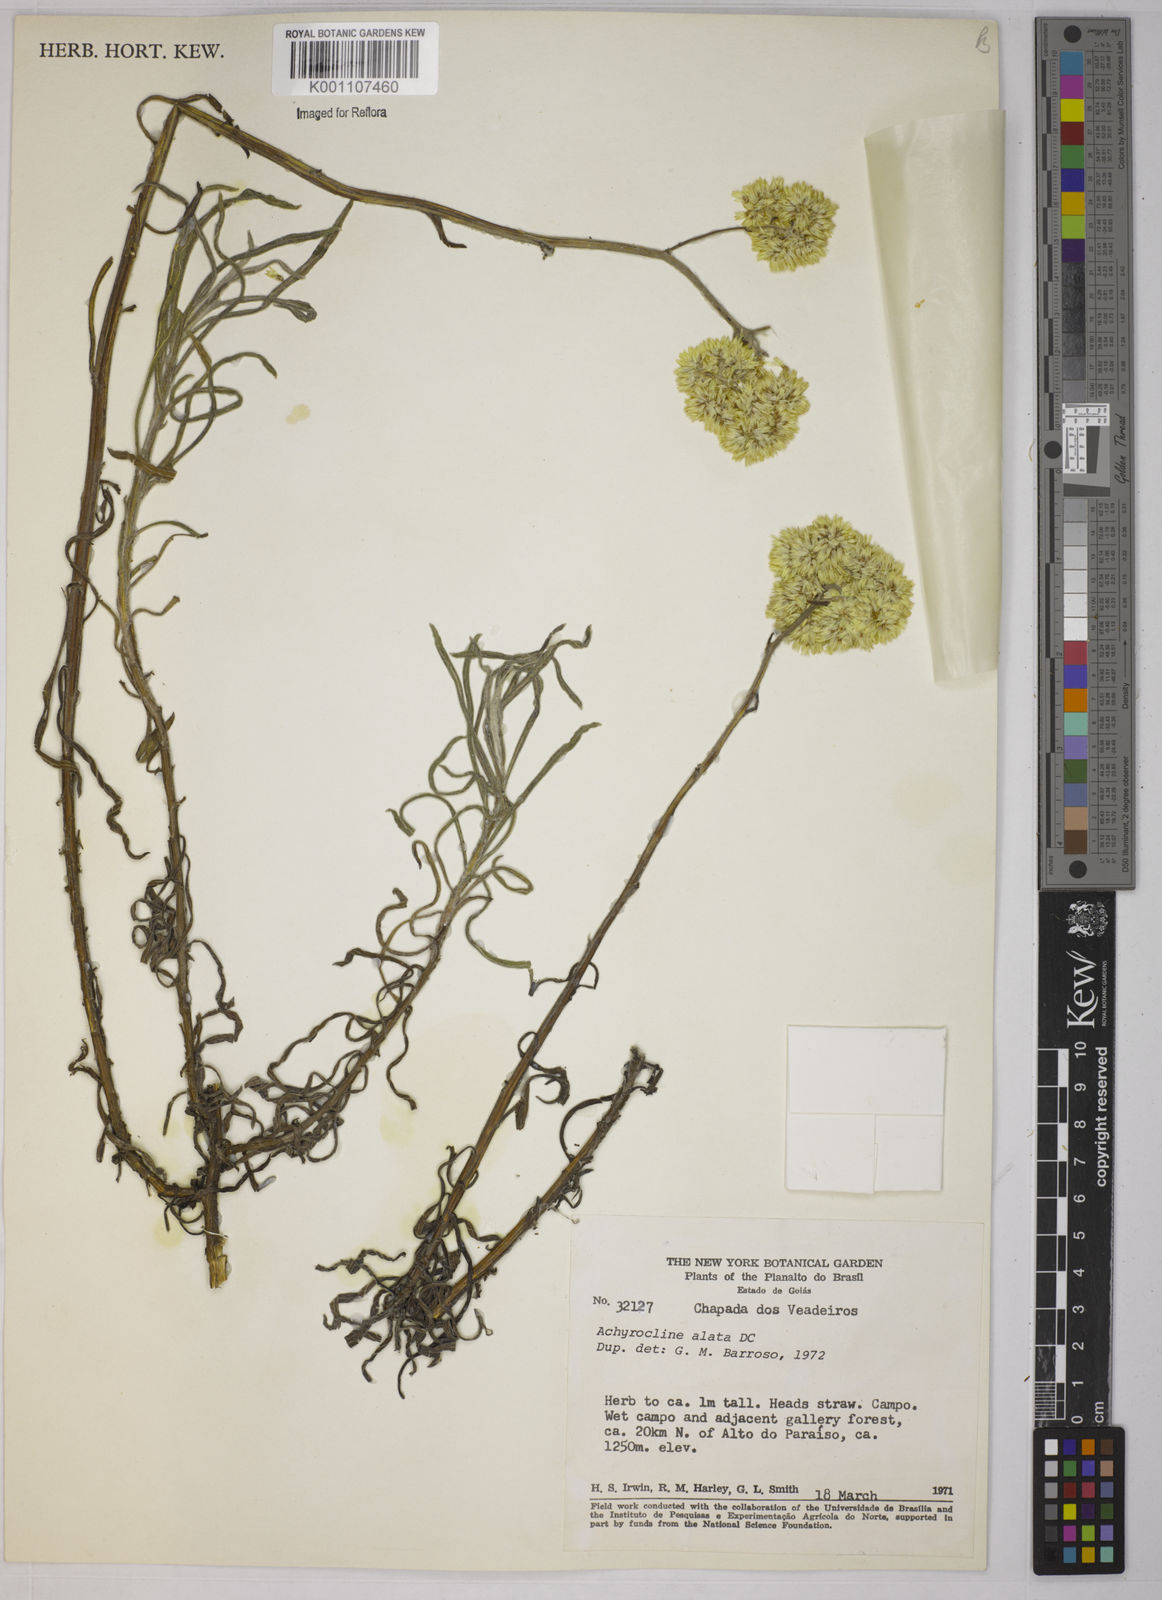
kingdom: Plantae
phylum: Tracheophyta
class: Magnoliopsida
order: Asterales
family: Asteraceae
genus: Achyrocline
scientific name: Achyrocline alata
